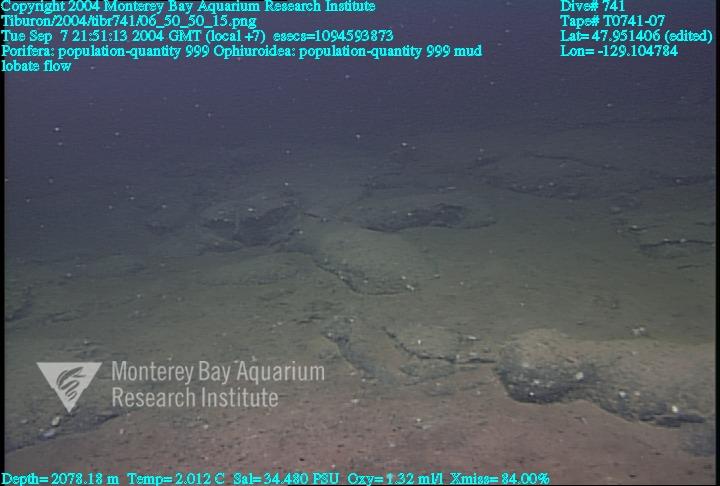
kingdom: Animalia
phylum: Porifera
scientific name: Porifera
